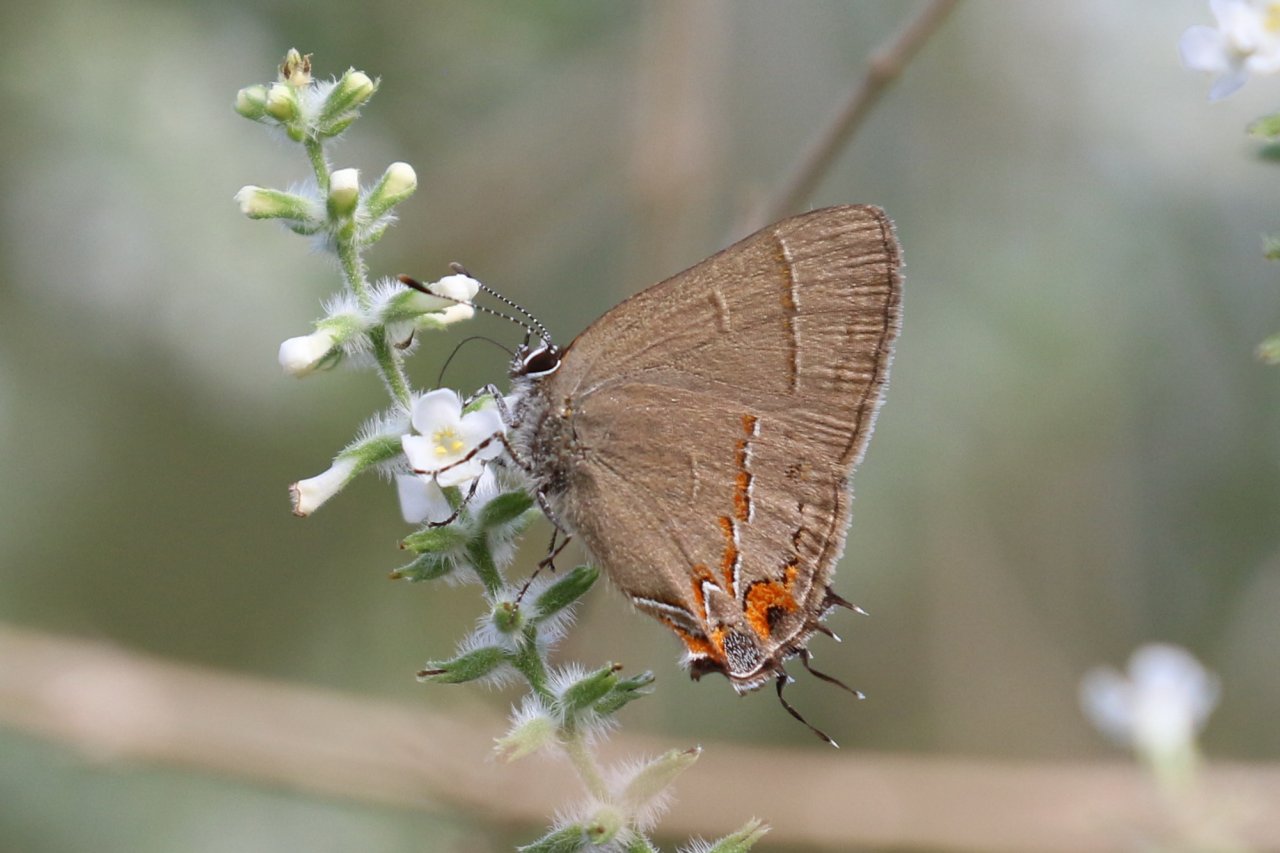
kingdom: Animalia
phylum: Arthropoda
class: Insecta
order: Lepidoptera
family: Lycaenidae
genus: Electrostrymon
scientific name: Electrostrymon
